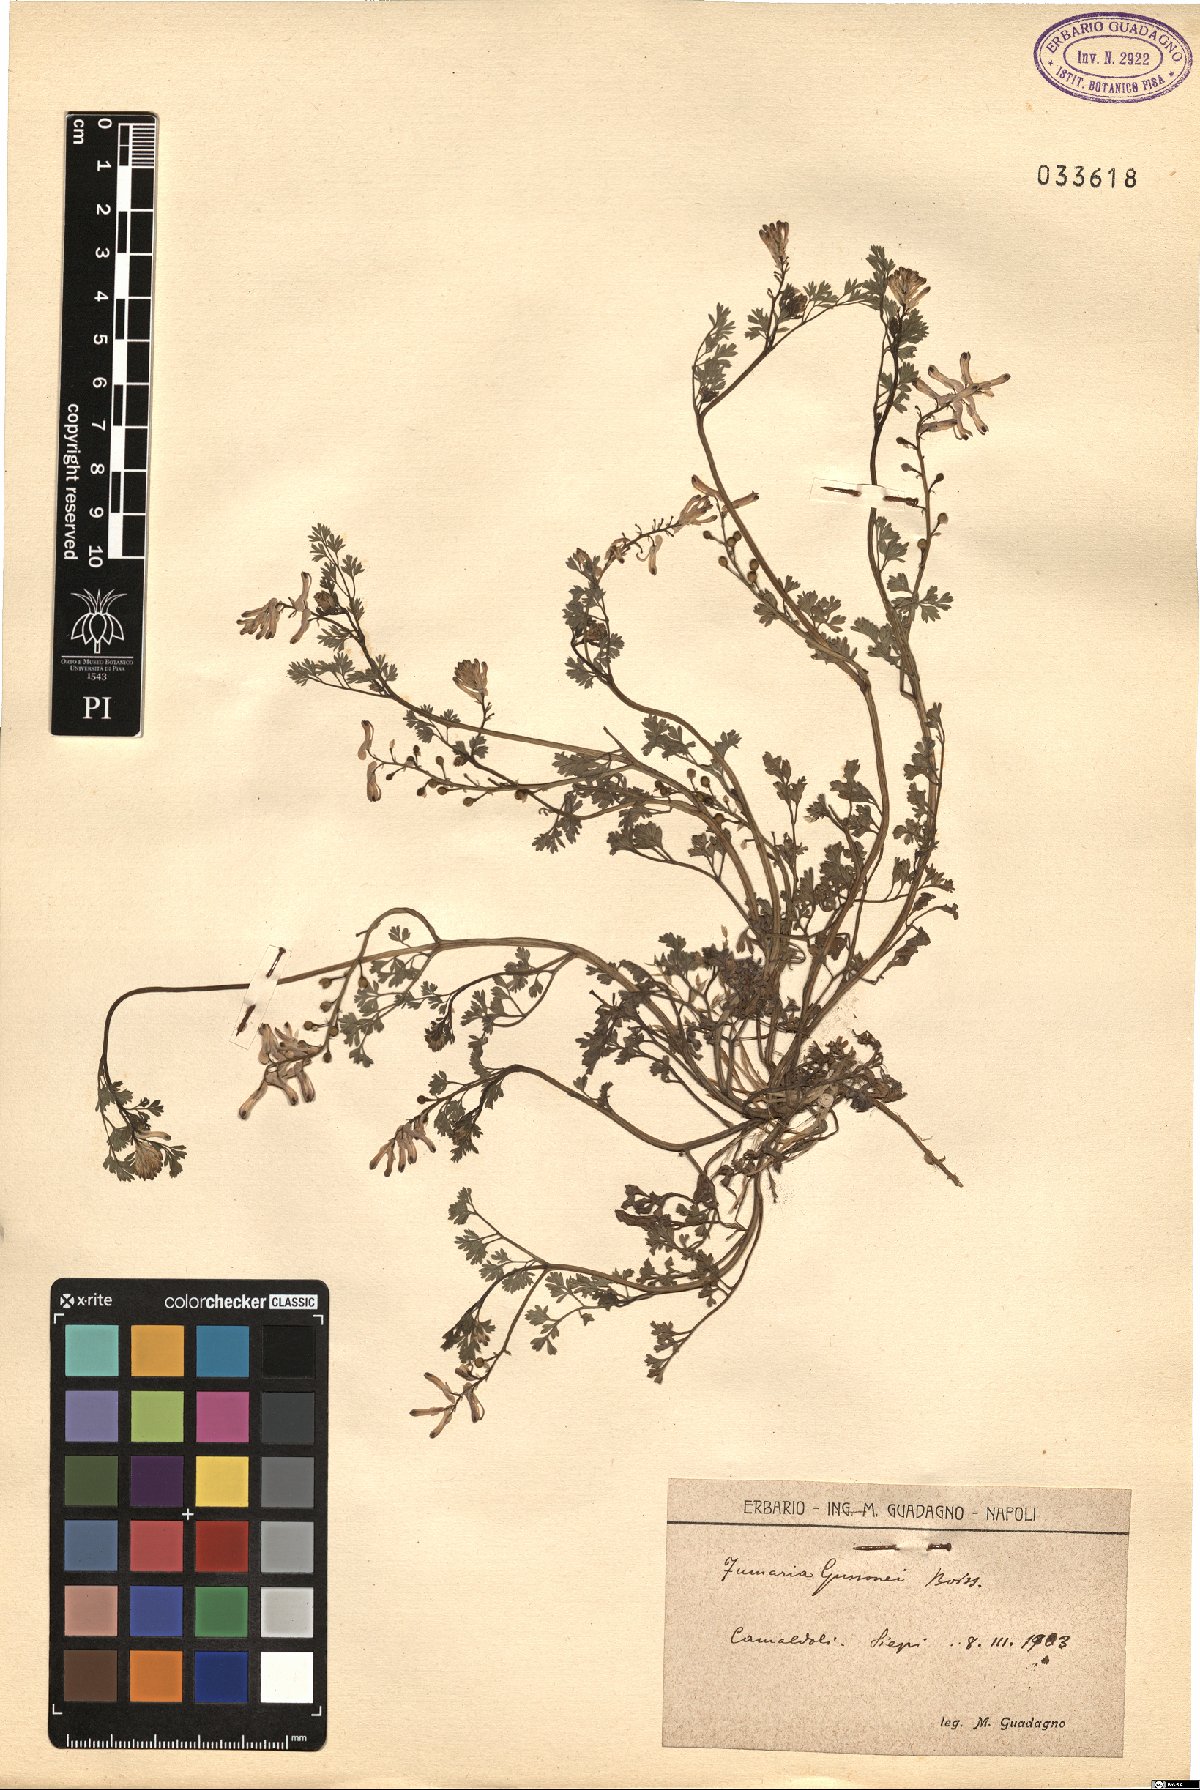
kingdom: Plantae
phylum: Tracheophyta
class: Magnoliopsida
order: Ranunculales
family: Papaveraceae
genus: Fumaria
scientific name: Fumaria bastardii
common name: Tall ramping-fumitory
